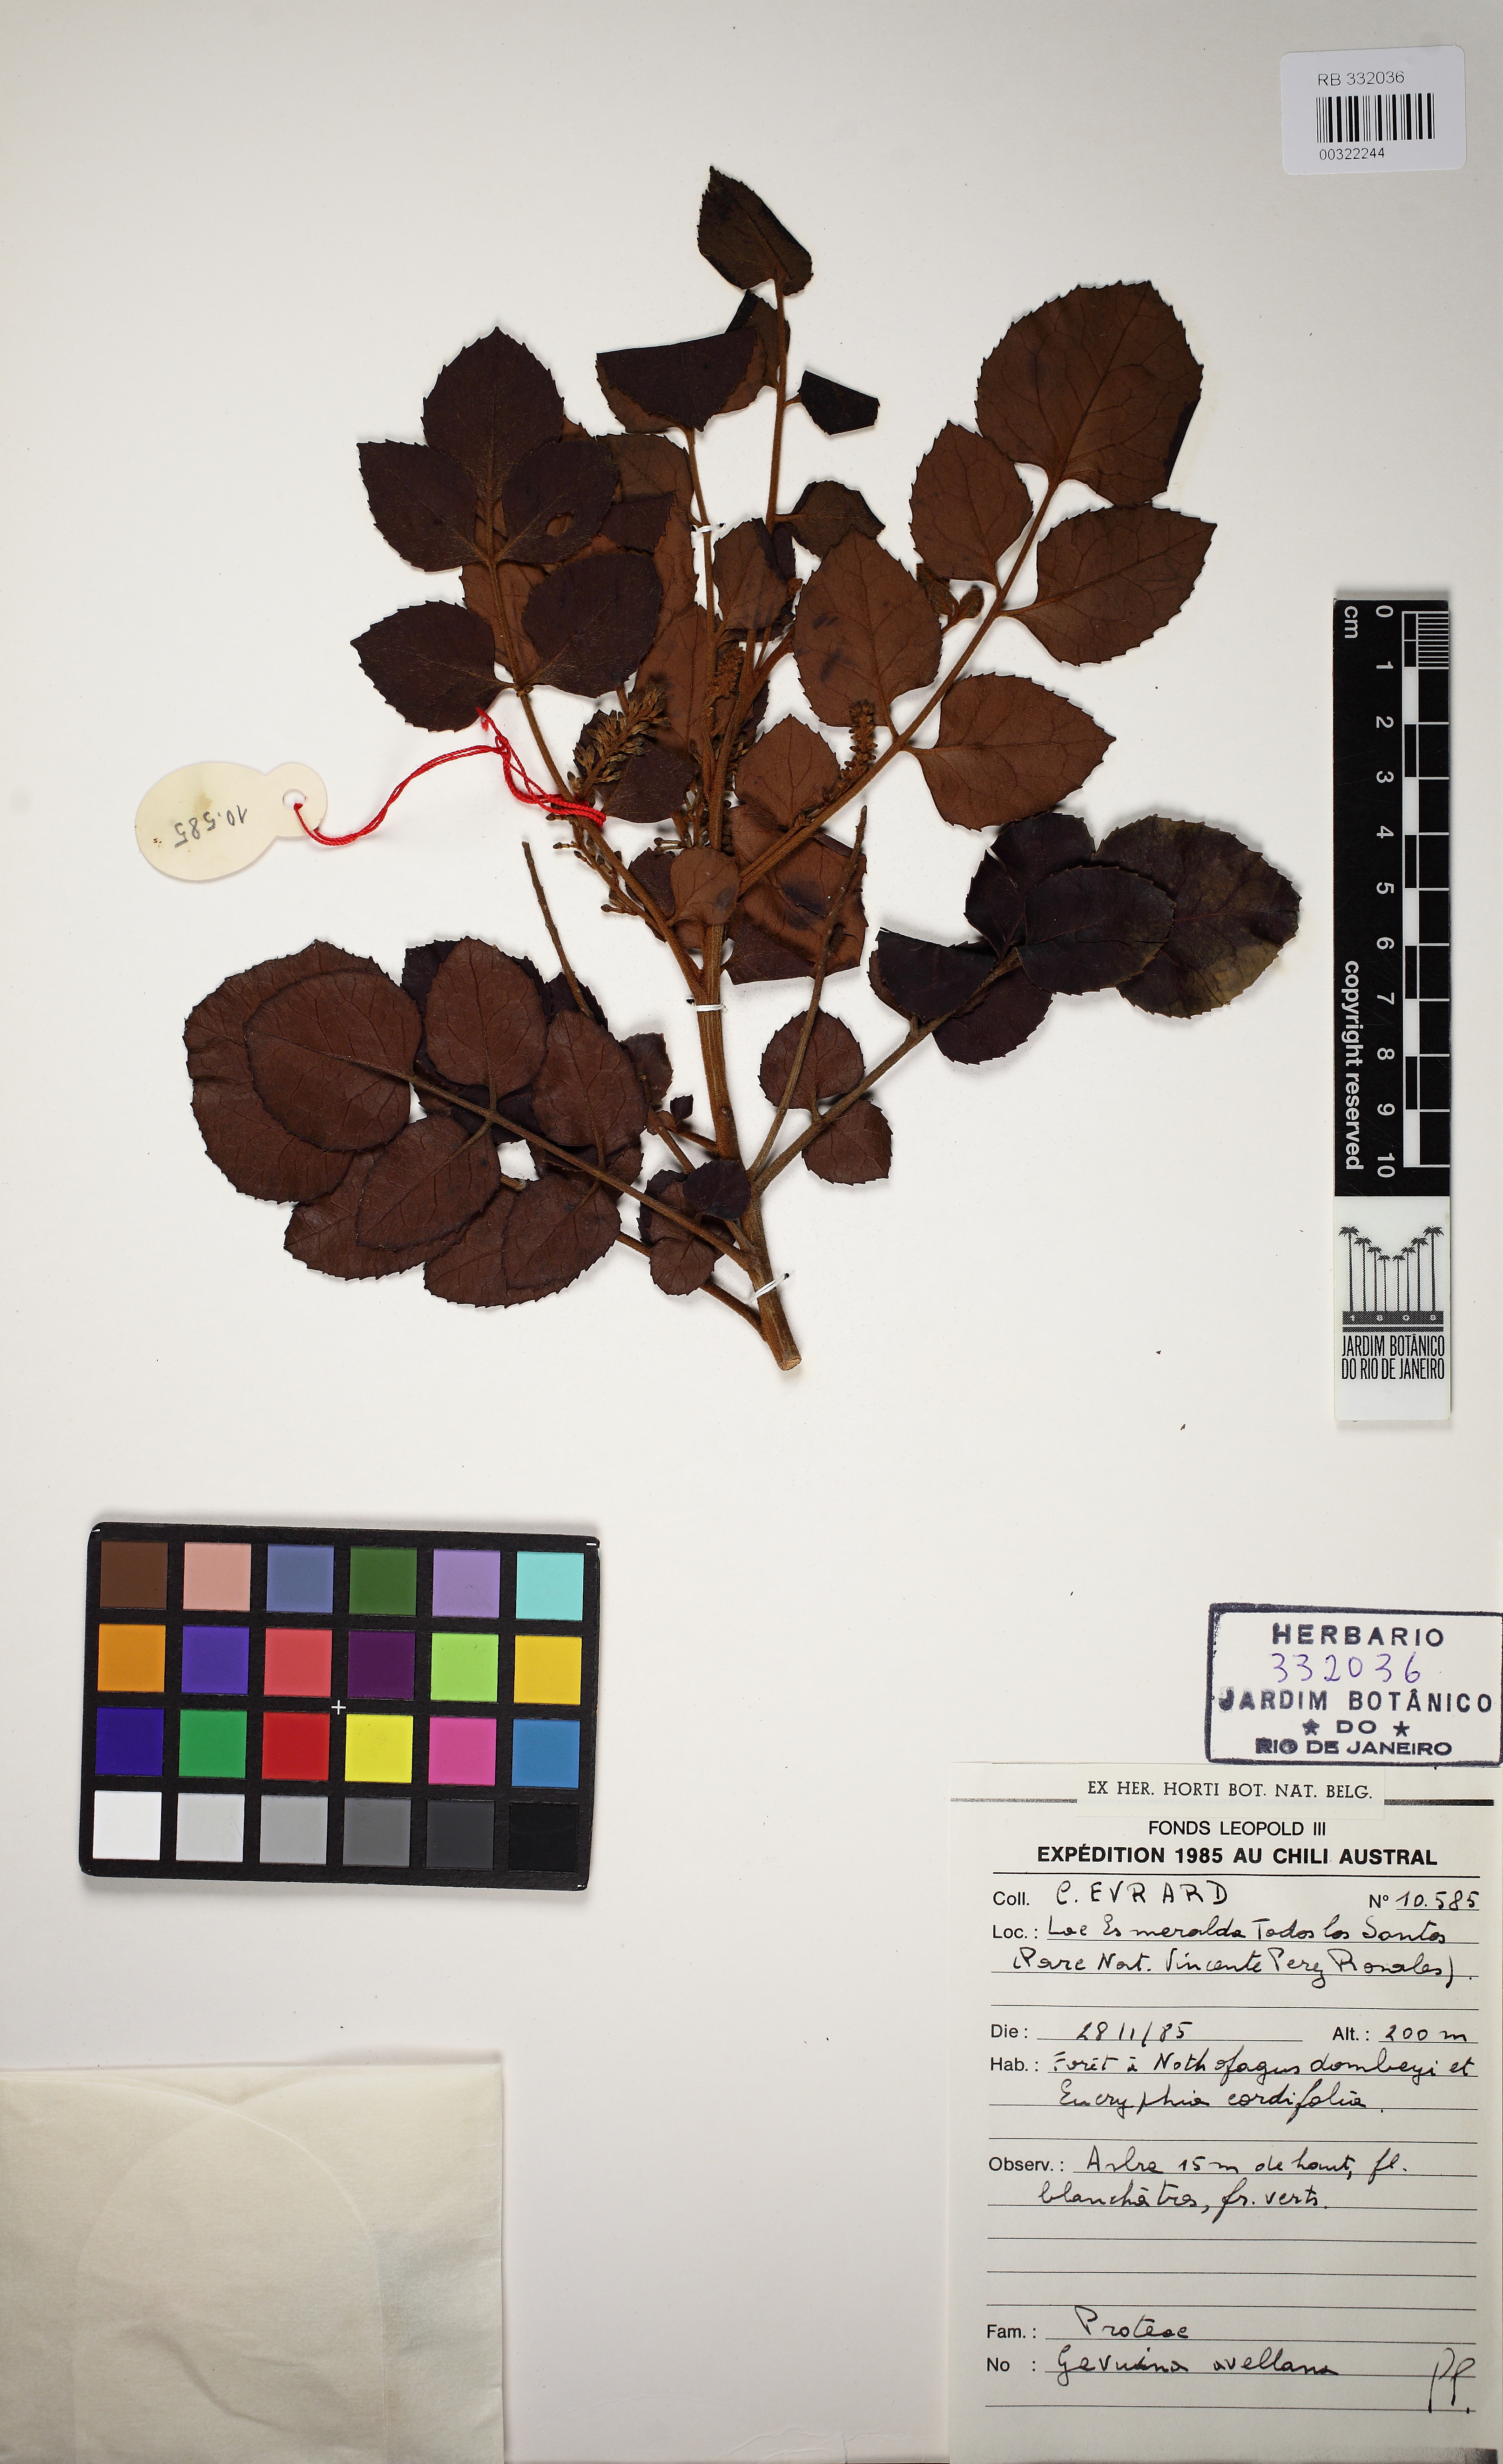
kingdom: Plantae
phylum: Tracheophyta
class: Magnoliopsida
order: Proteales
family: Proteaceae
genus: Gevuina
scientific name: Gevuina avellana
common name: Chilean hazel
